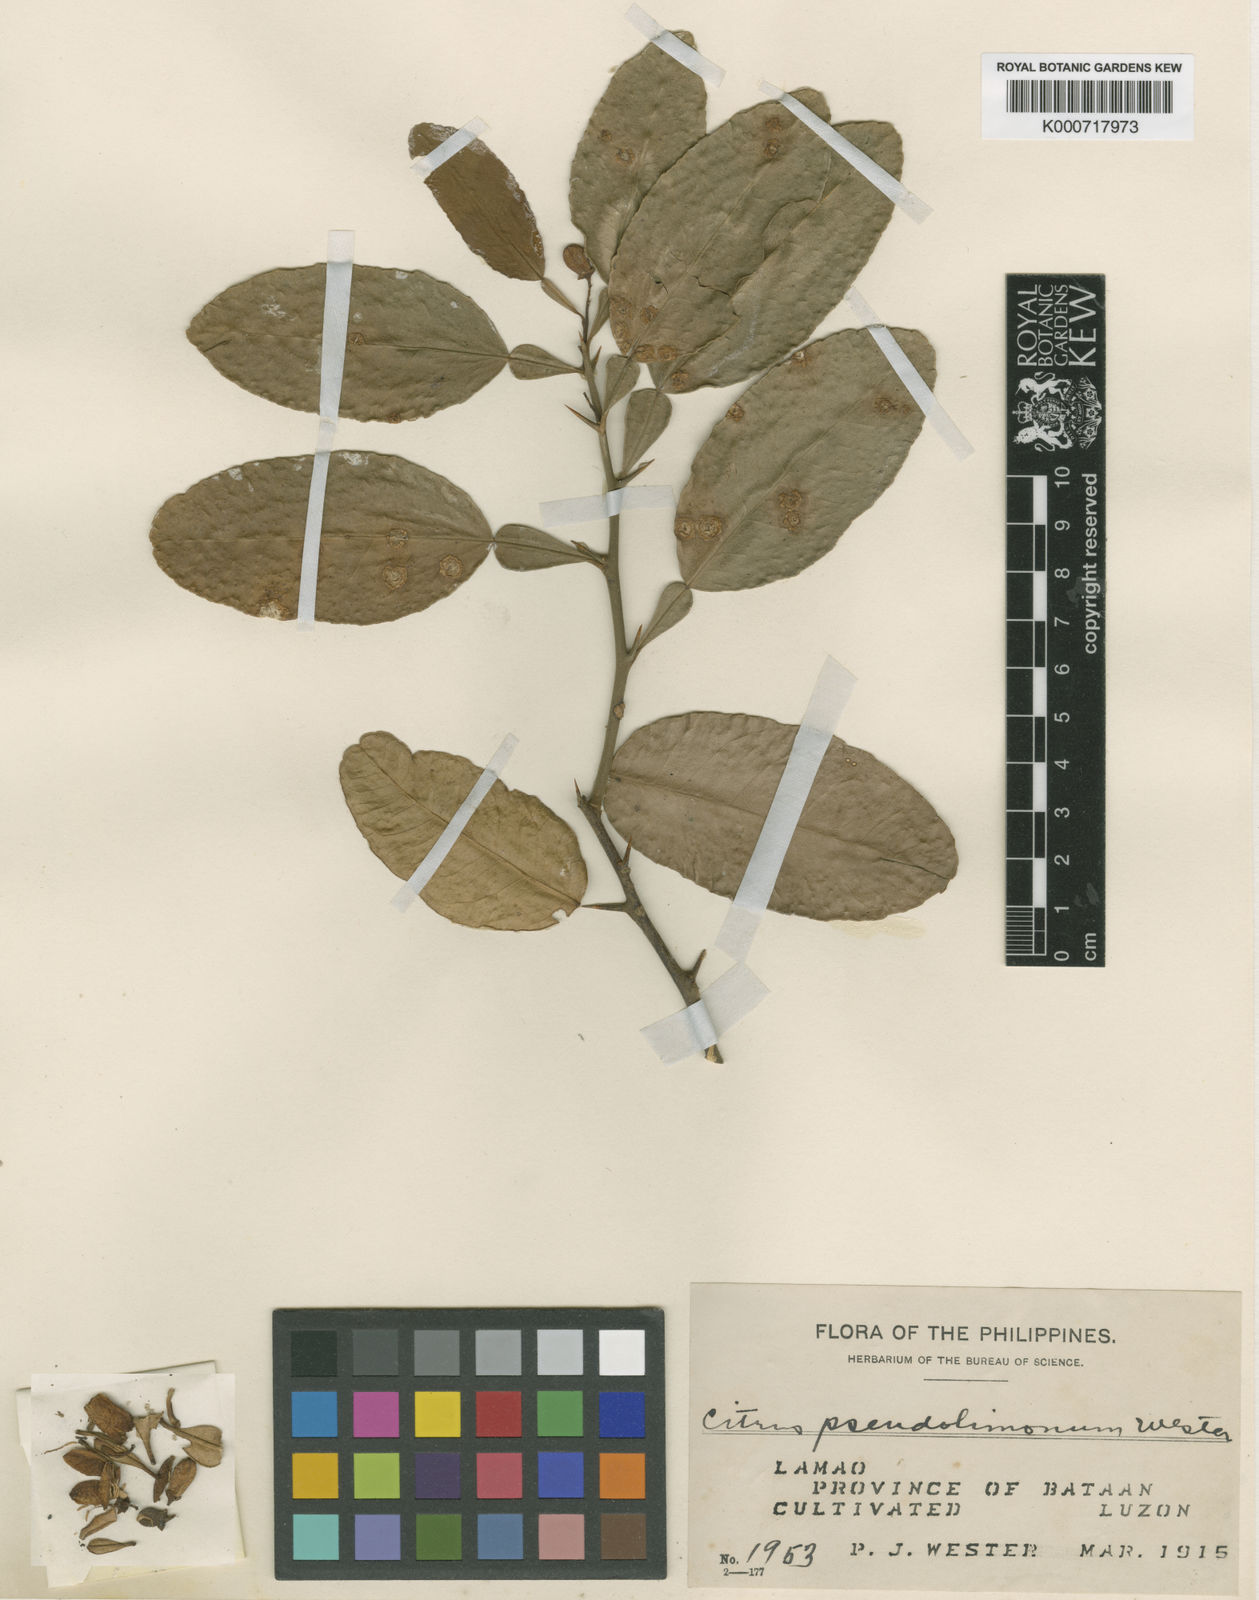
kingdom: Plantae
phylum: Tracheophyta
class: Magnoliopsida
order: Sapindales
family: Rutaceae
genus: Citrus
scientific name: Citrus aurantiifolia
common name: Key lime
